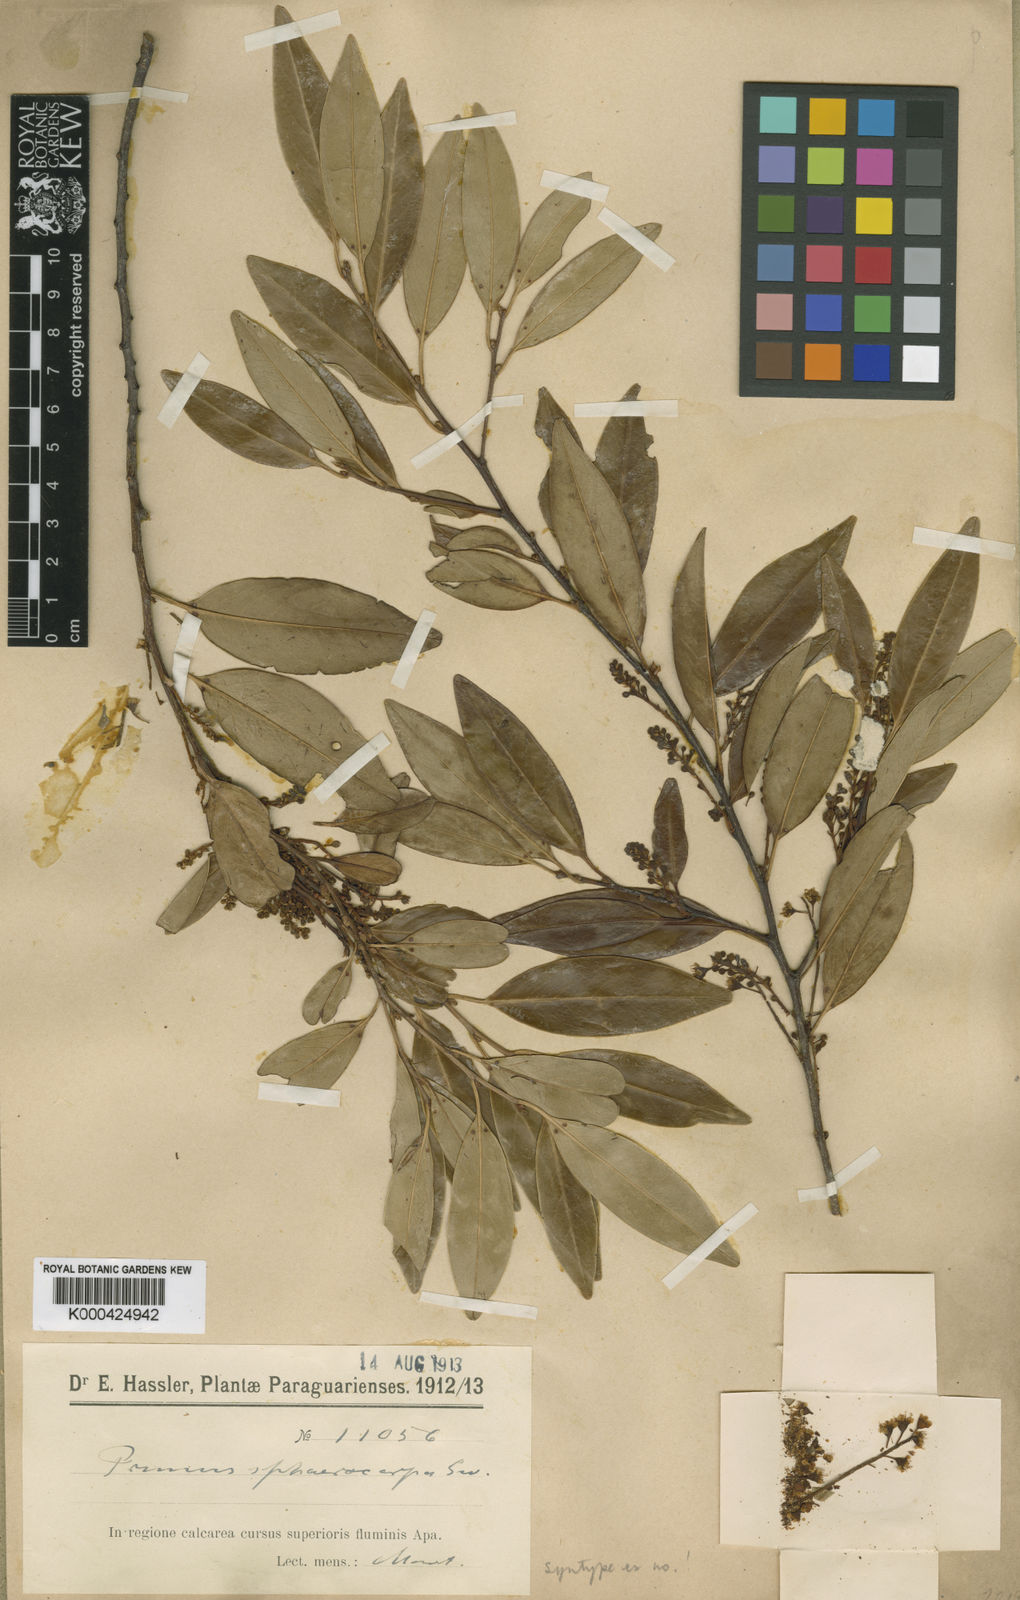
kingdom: Plantae
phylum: Tracheophyta
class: Magnoliopsida
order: Rosales
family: Rosaceae
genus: Prunus
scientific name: Prunus oleifolia
